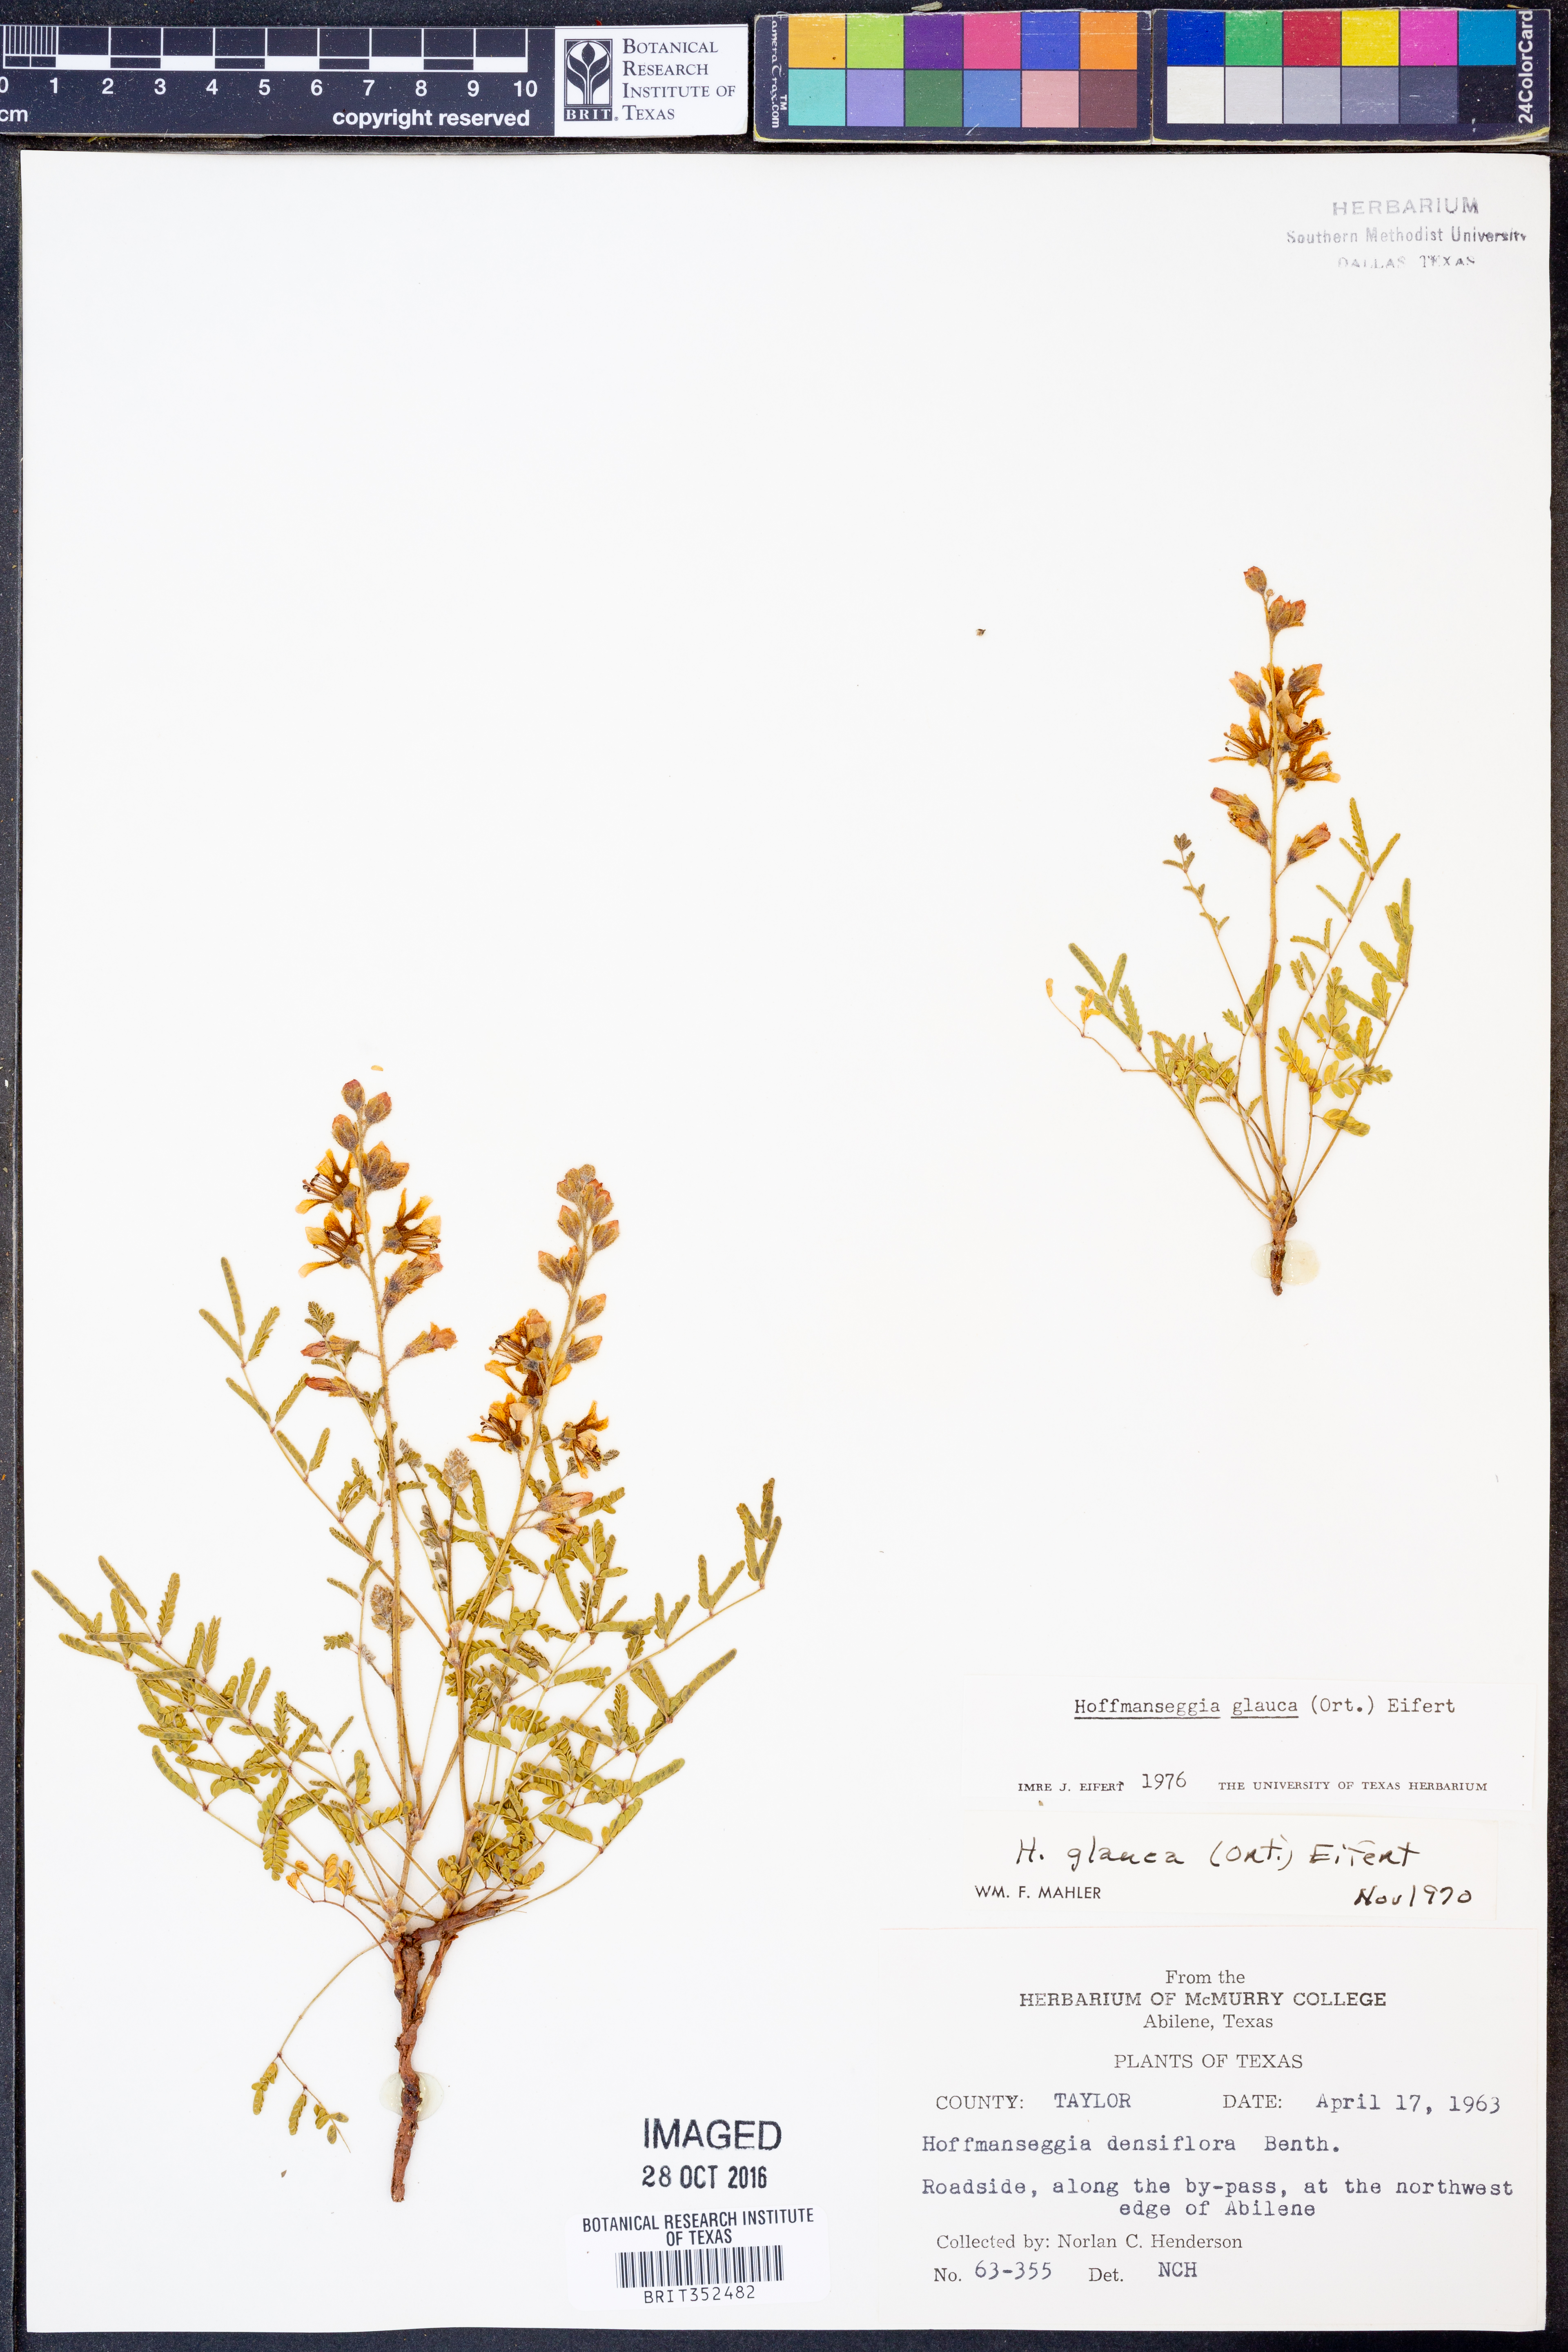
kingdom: Plantae
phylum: Tracheophyta
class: Magnoliopsida
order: Fabales
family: Fabaceae
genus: Hoffmannseggia
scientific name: Hoffmannseggia glauca
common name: Pignut
